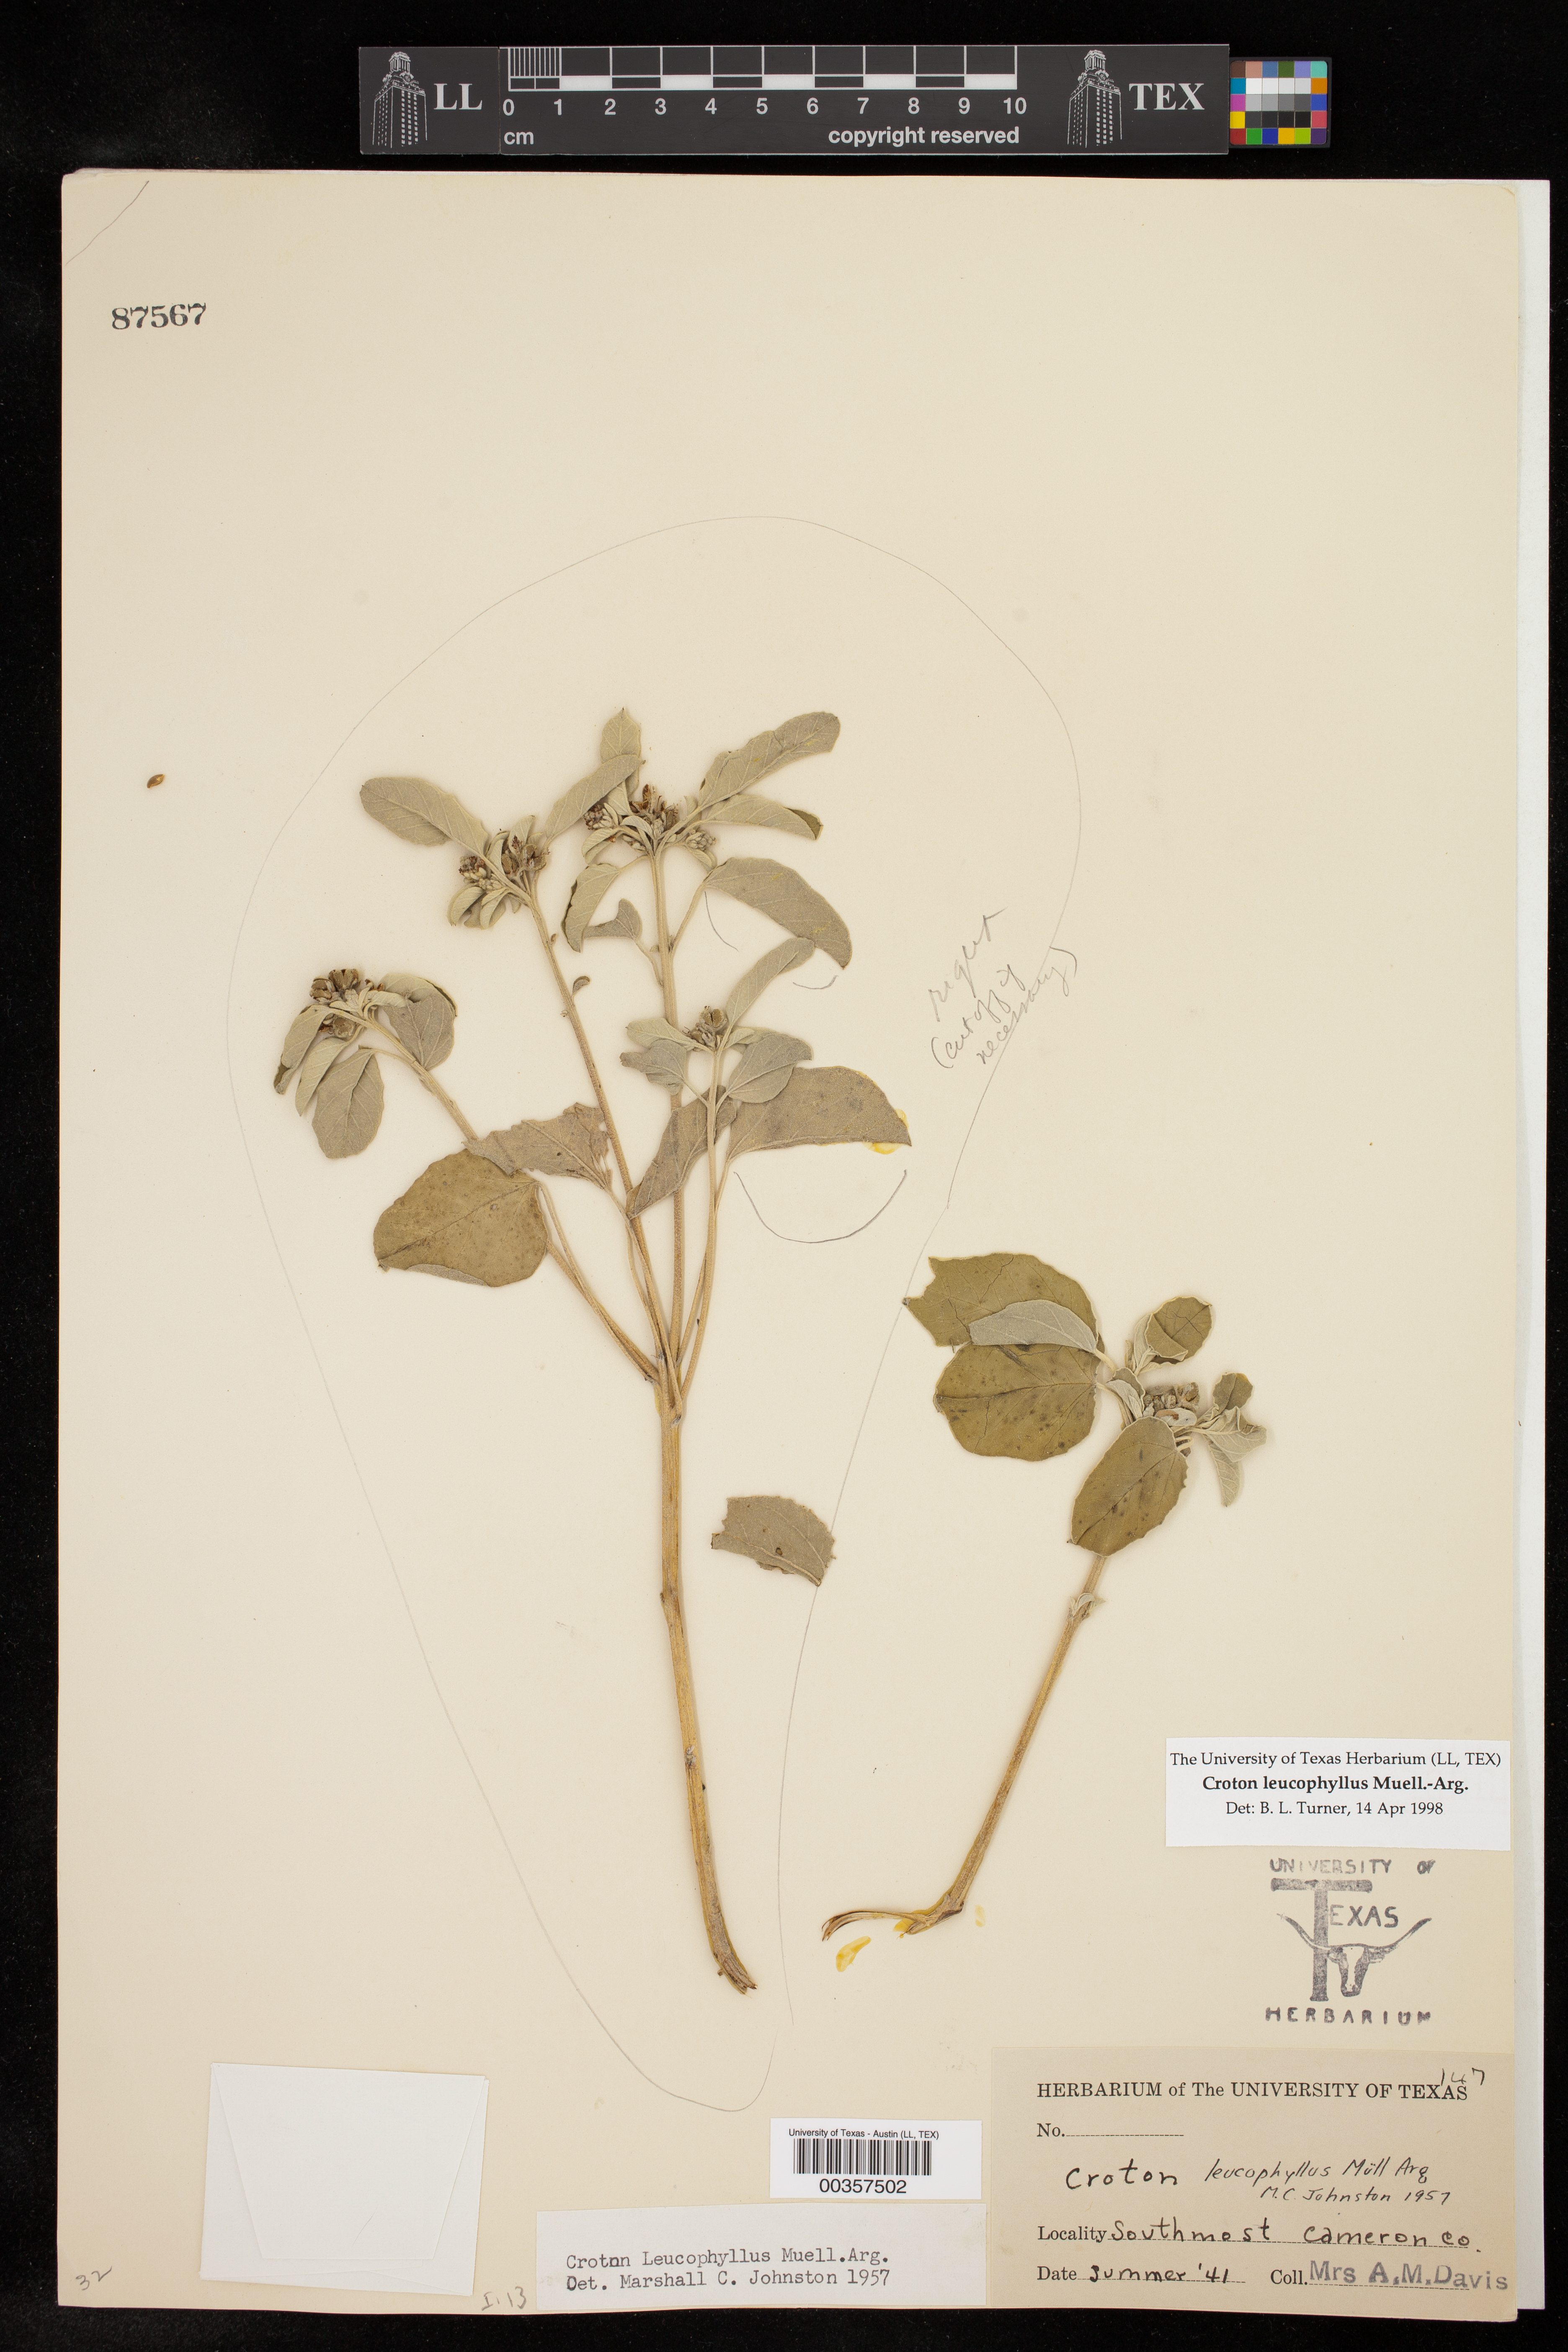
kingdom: Plantae
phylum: Tracheophyta
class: Magnoliopsida
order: Malpighiales
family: Euphorbiaceae
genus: Croton
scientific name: Croton leucophyllus
